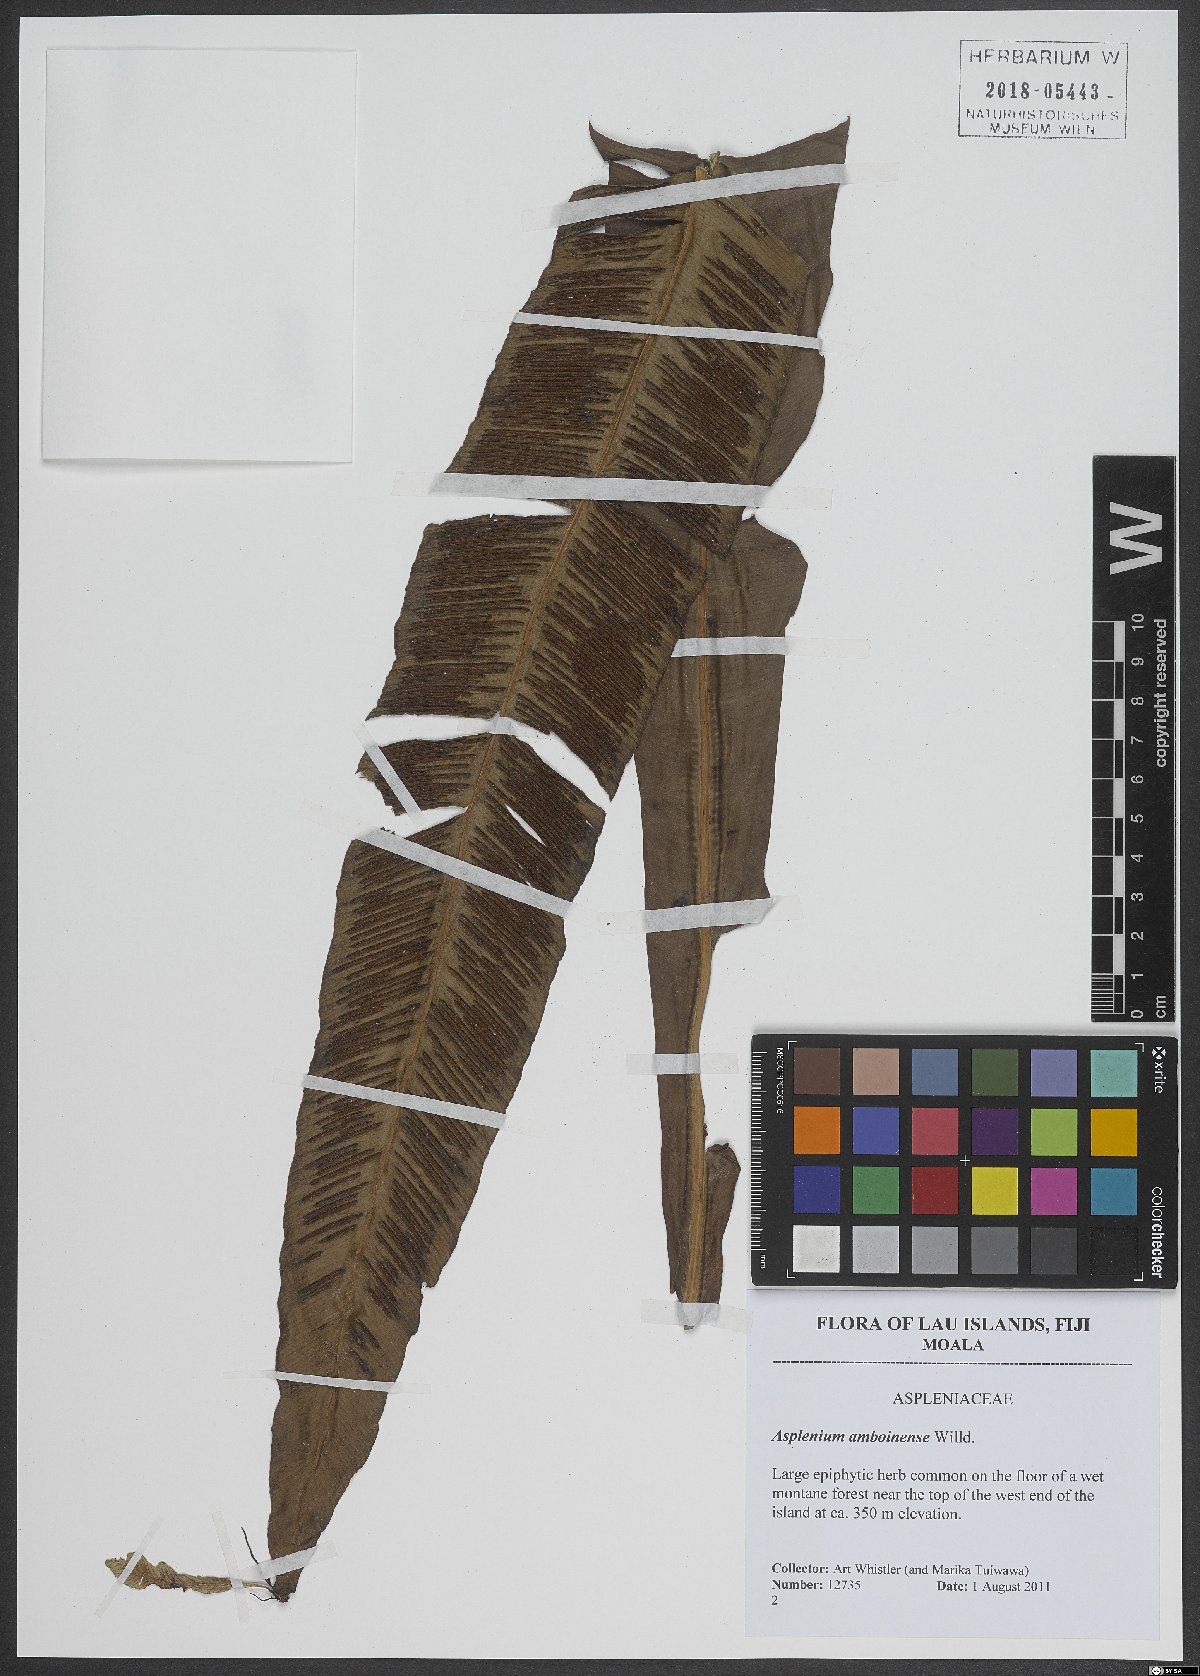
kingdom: Plantae
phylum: Tracheophyta
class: Polypodiopsida
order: Polypodiales
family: Aspleniaceae
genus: Asplenium
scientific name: Asplenium amboinense
